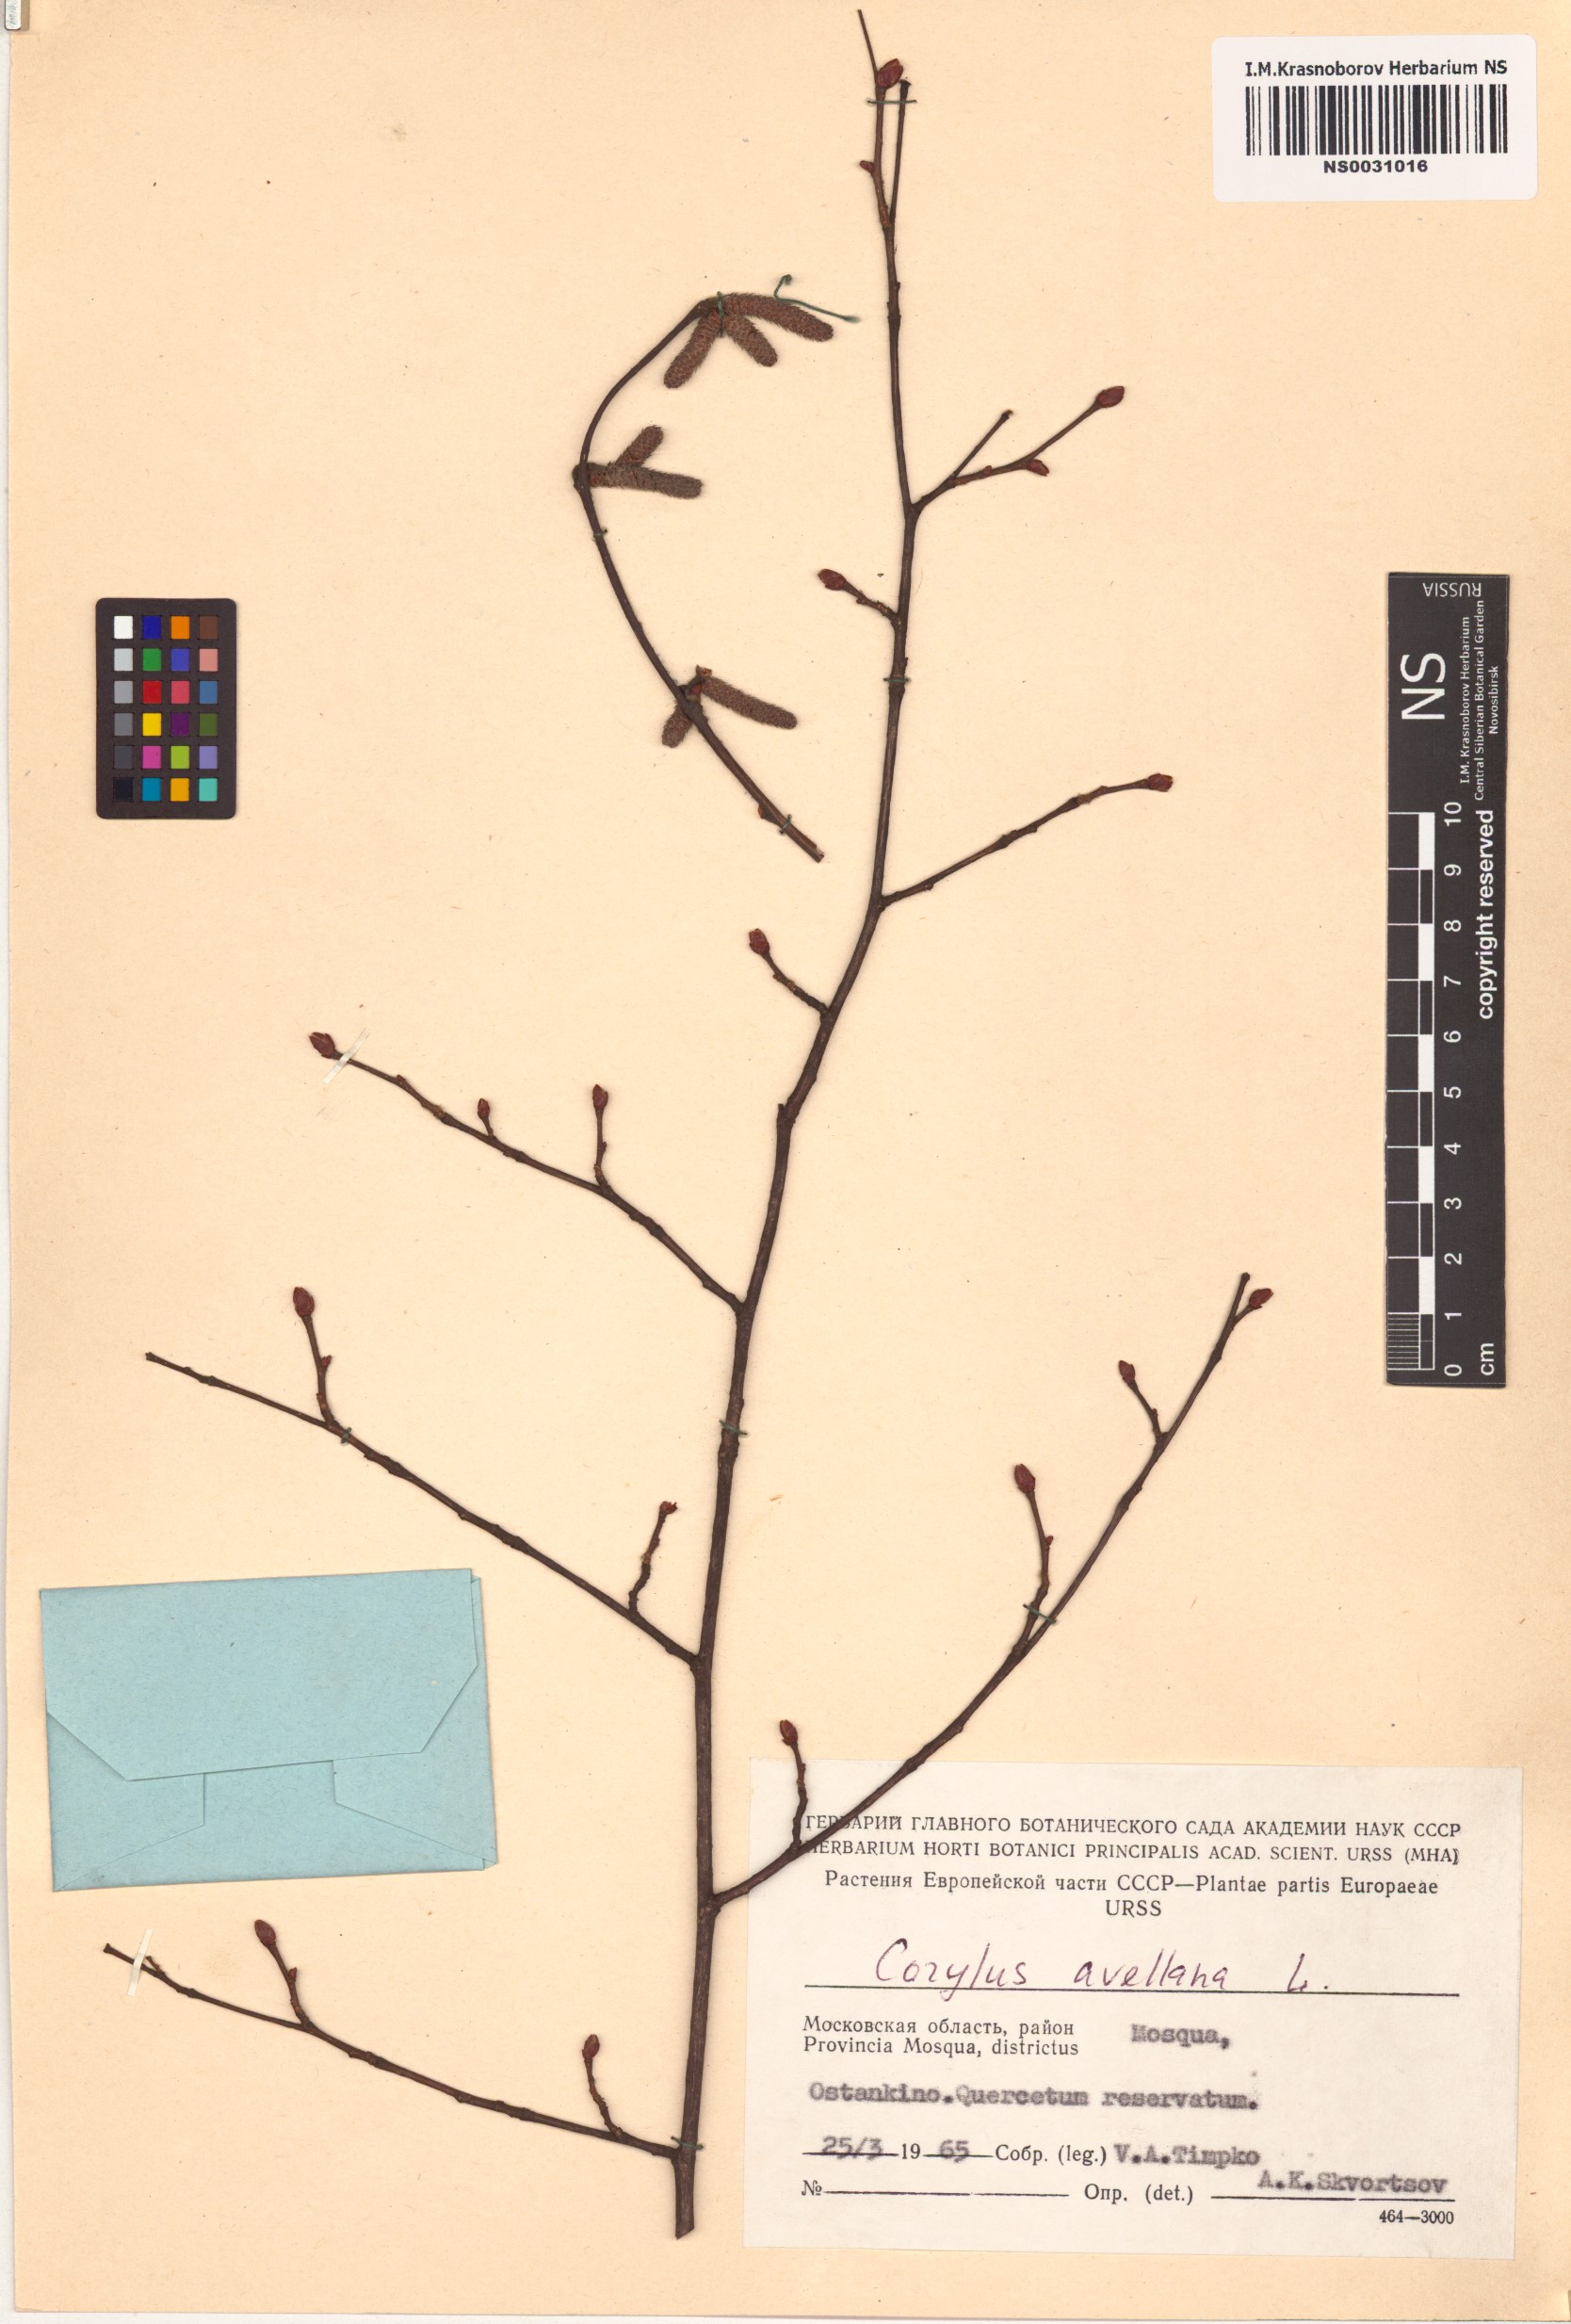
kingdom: Plantae
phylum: Tracheophyta
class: Magnoliopsida
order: Fagales
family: Betulaceae
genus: Corylus
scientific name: Corylus avellana
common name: European hazel
